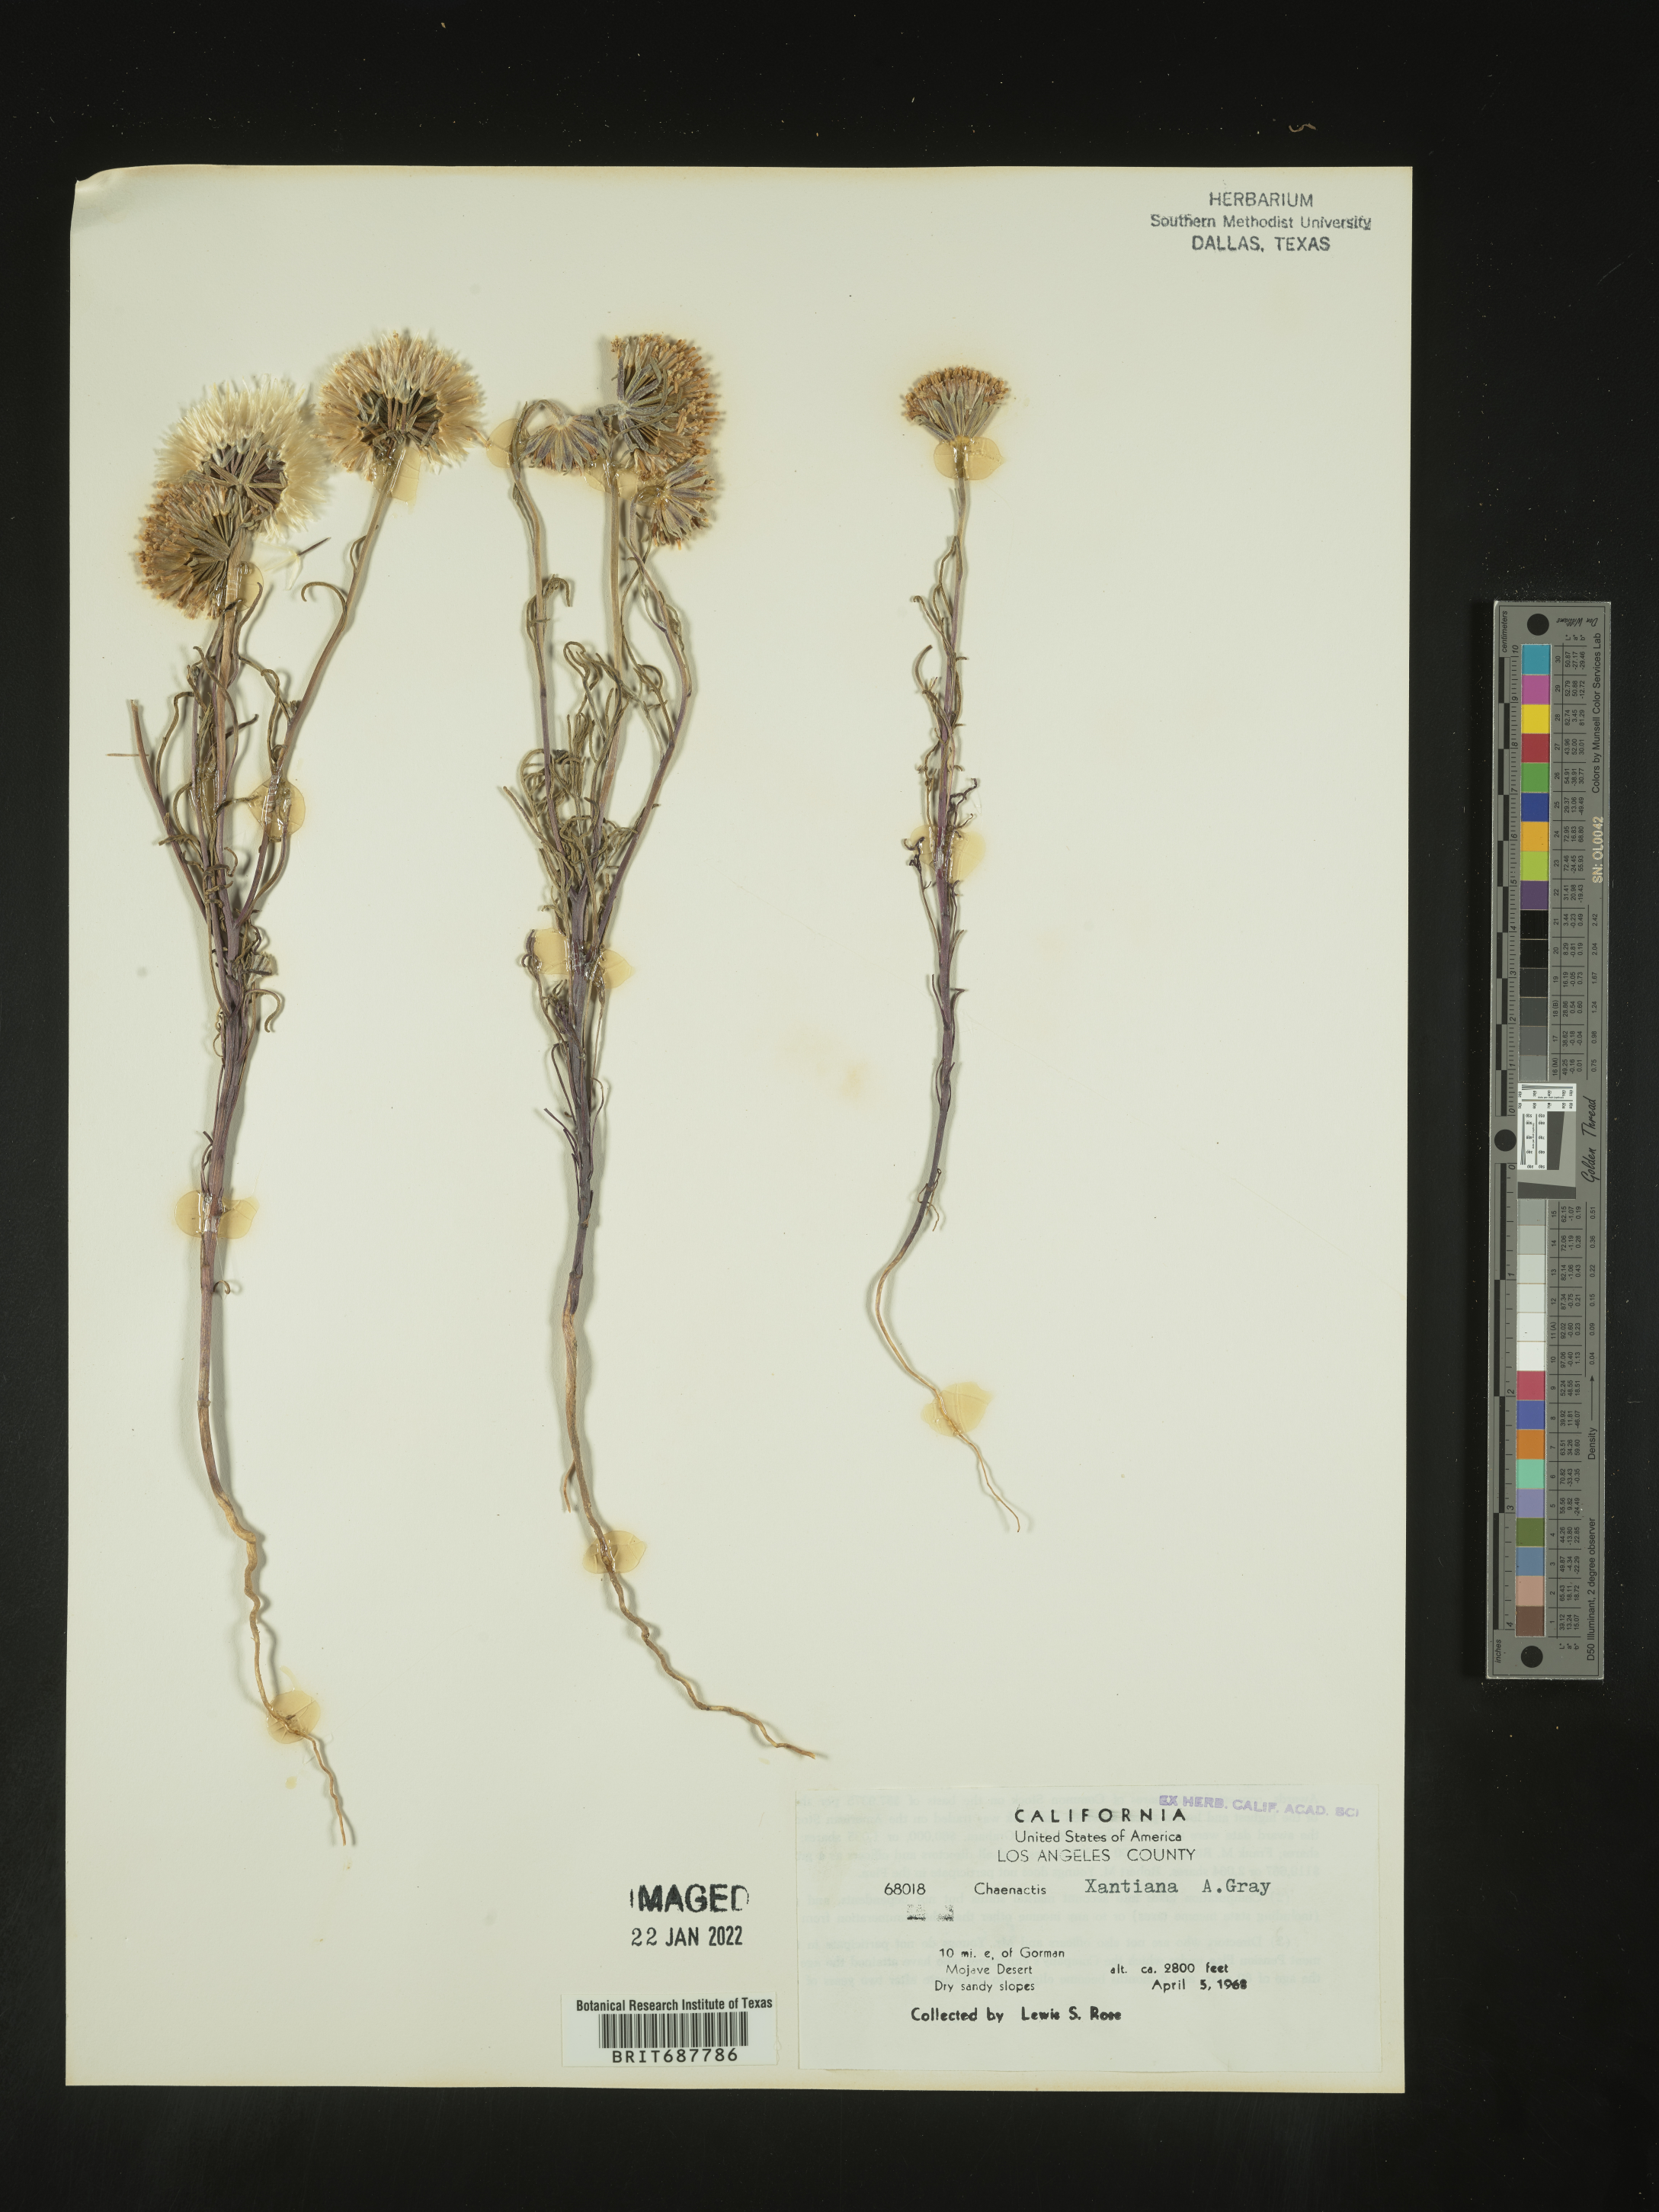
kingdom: Plantae
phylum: Tracheophyta
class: Magnoliopsida
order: Asterales
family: Asteraceae
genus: Chaenactis
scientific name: Chaenactis xantiana
